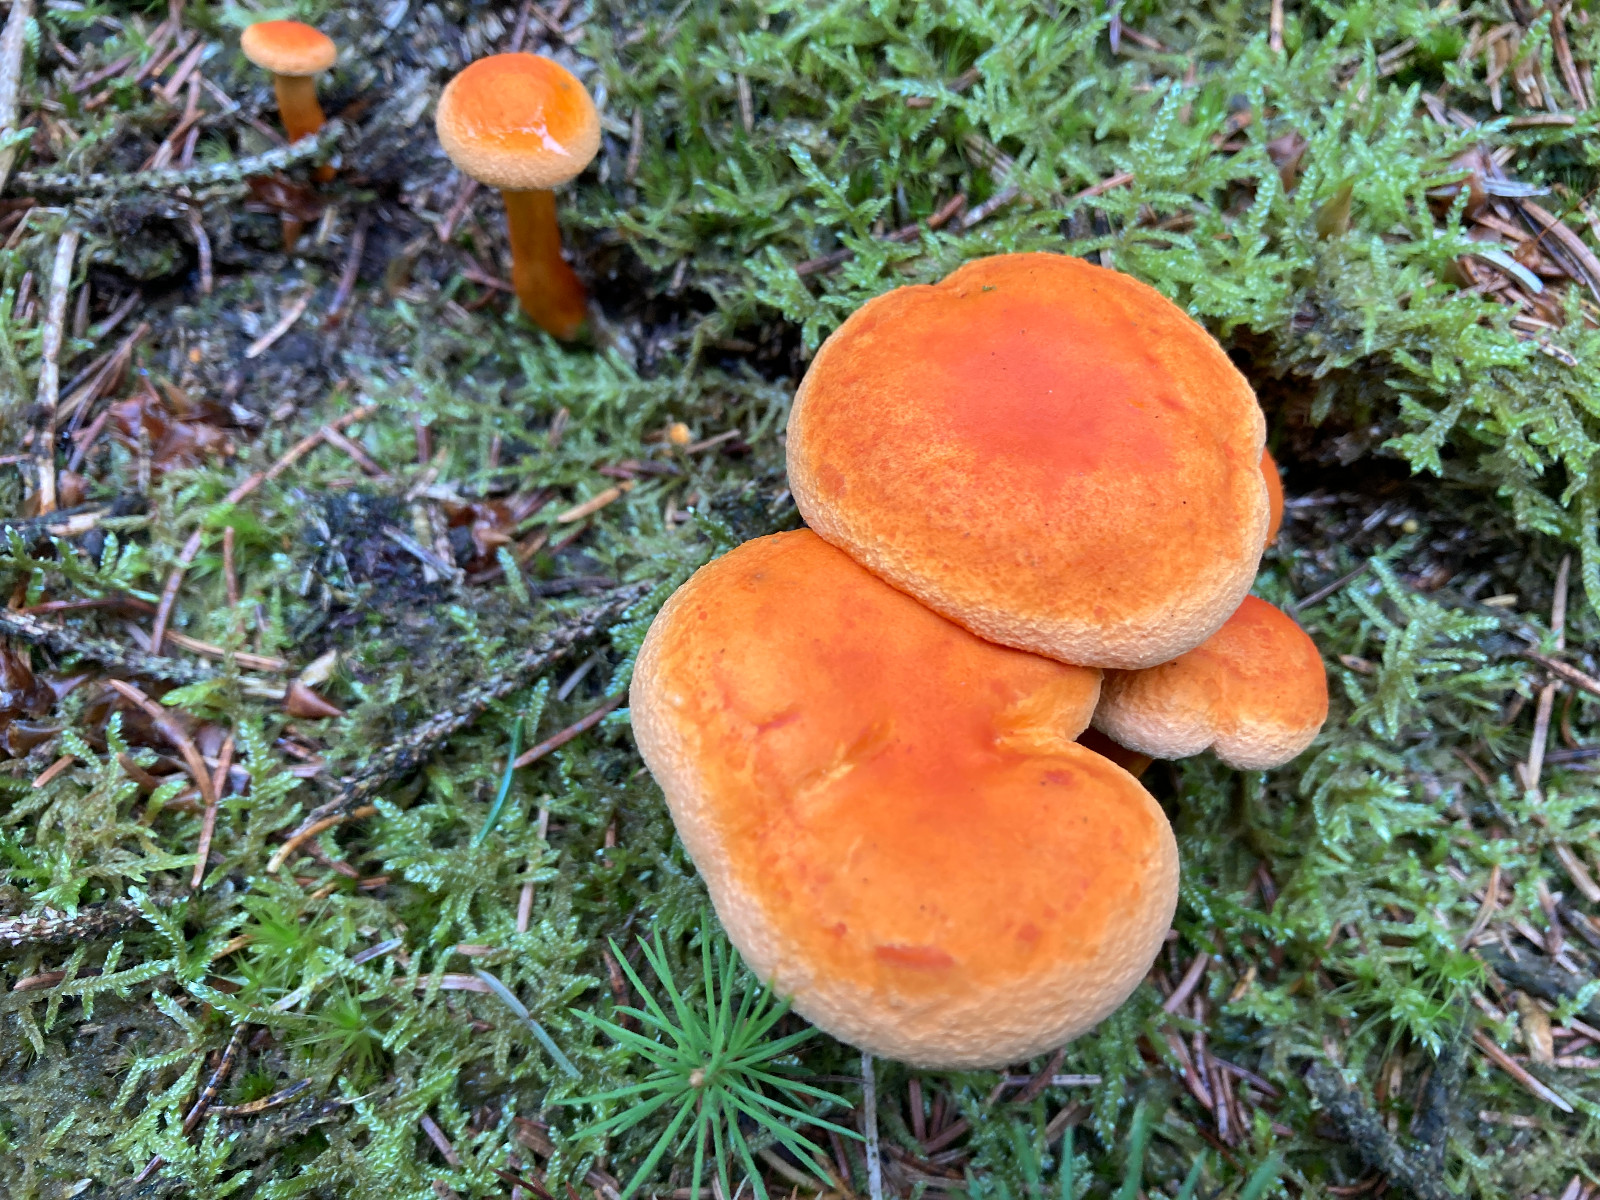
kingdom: Fungi
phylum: Basidiomycota
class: Agaricomycetes
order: Boletales
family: Hygrophoropsidaceae
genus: Hygrophoropsis
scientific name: Hygrophoropsis aurantiaca
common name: almindelig orangekantarel
